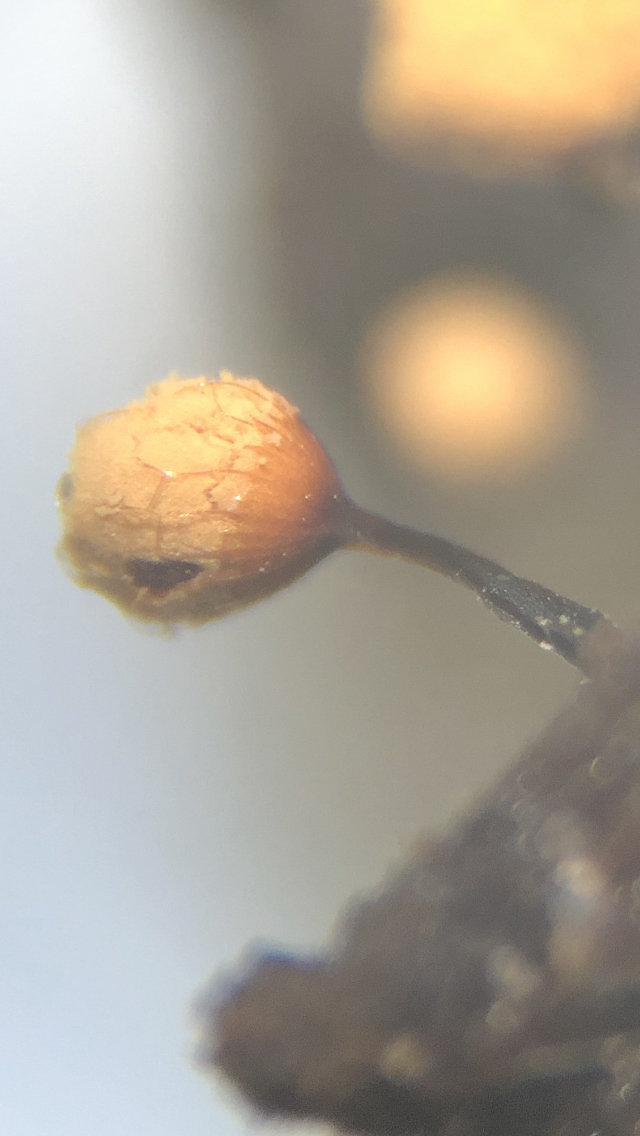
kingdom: Protozoa
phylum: Mycetozoa
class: Myxomycetes
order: Cribrariales
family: Cribrariaceae
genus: Cribraria
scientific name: Cribraria rufa
